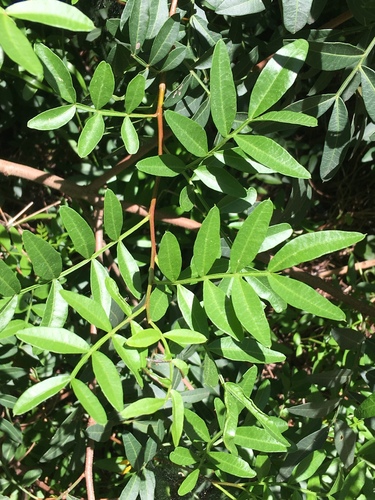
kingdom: Plantae
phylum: Tracheophyta
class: Magnoliopsida
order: Sapindales
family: Anacardiaceae
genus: Pistacia
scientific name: Pistacia lentiscus
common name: Lentisk
